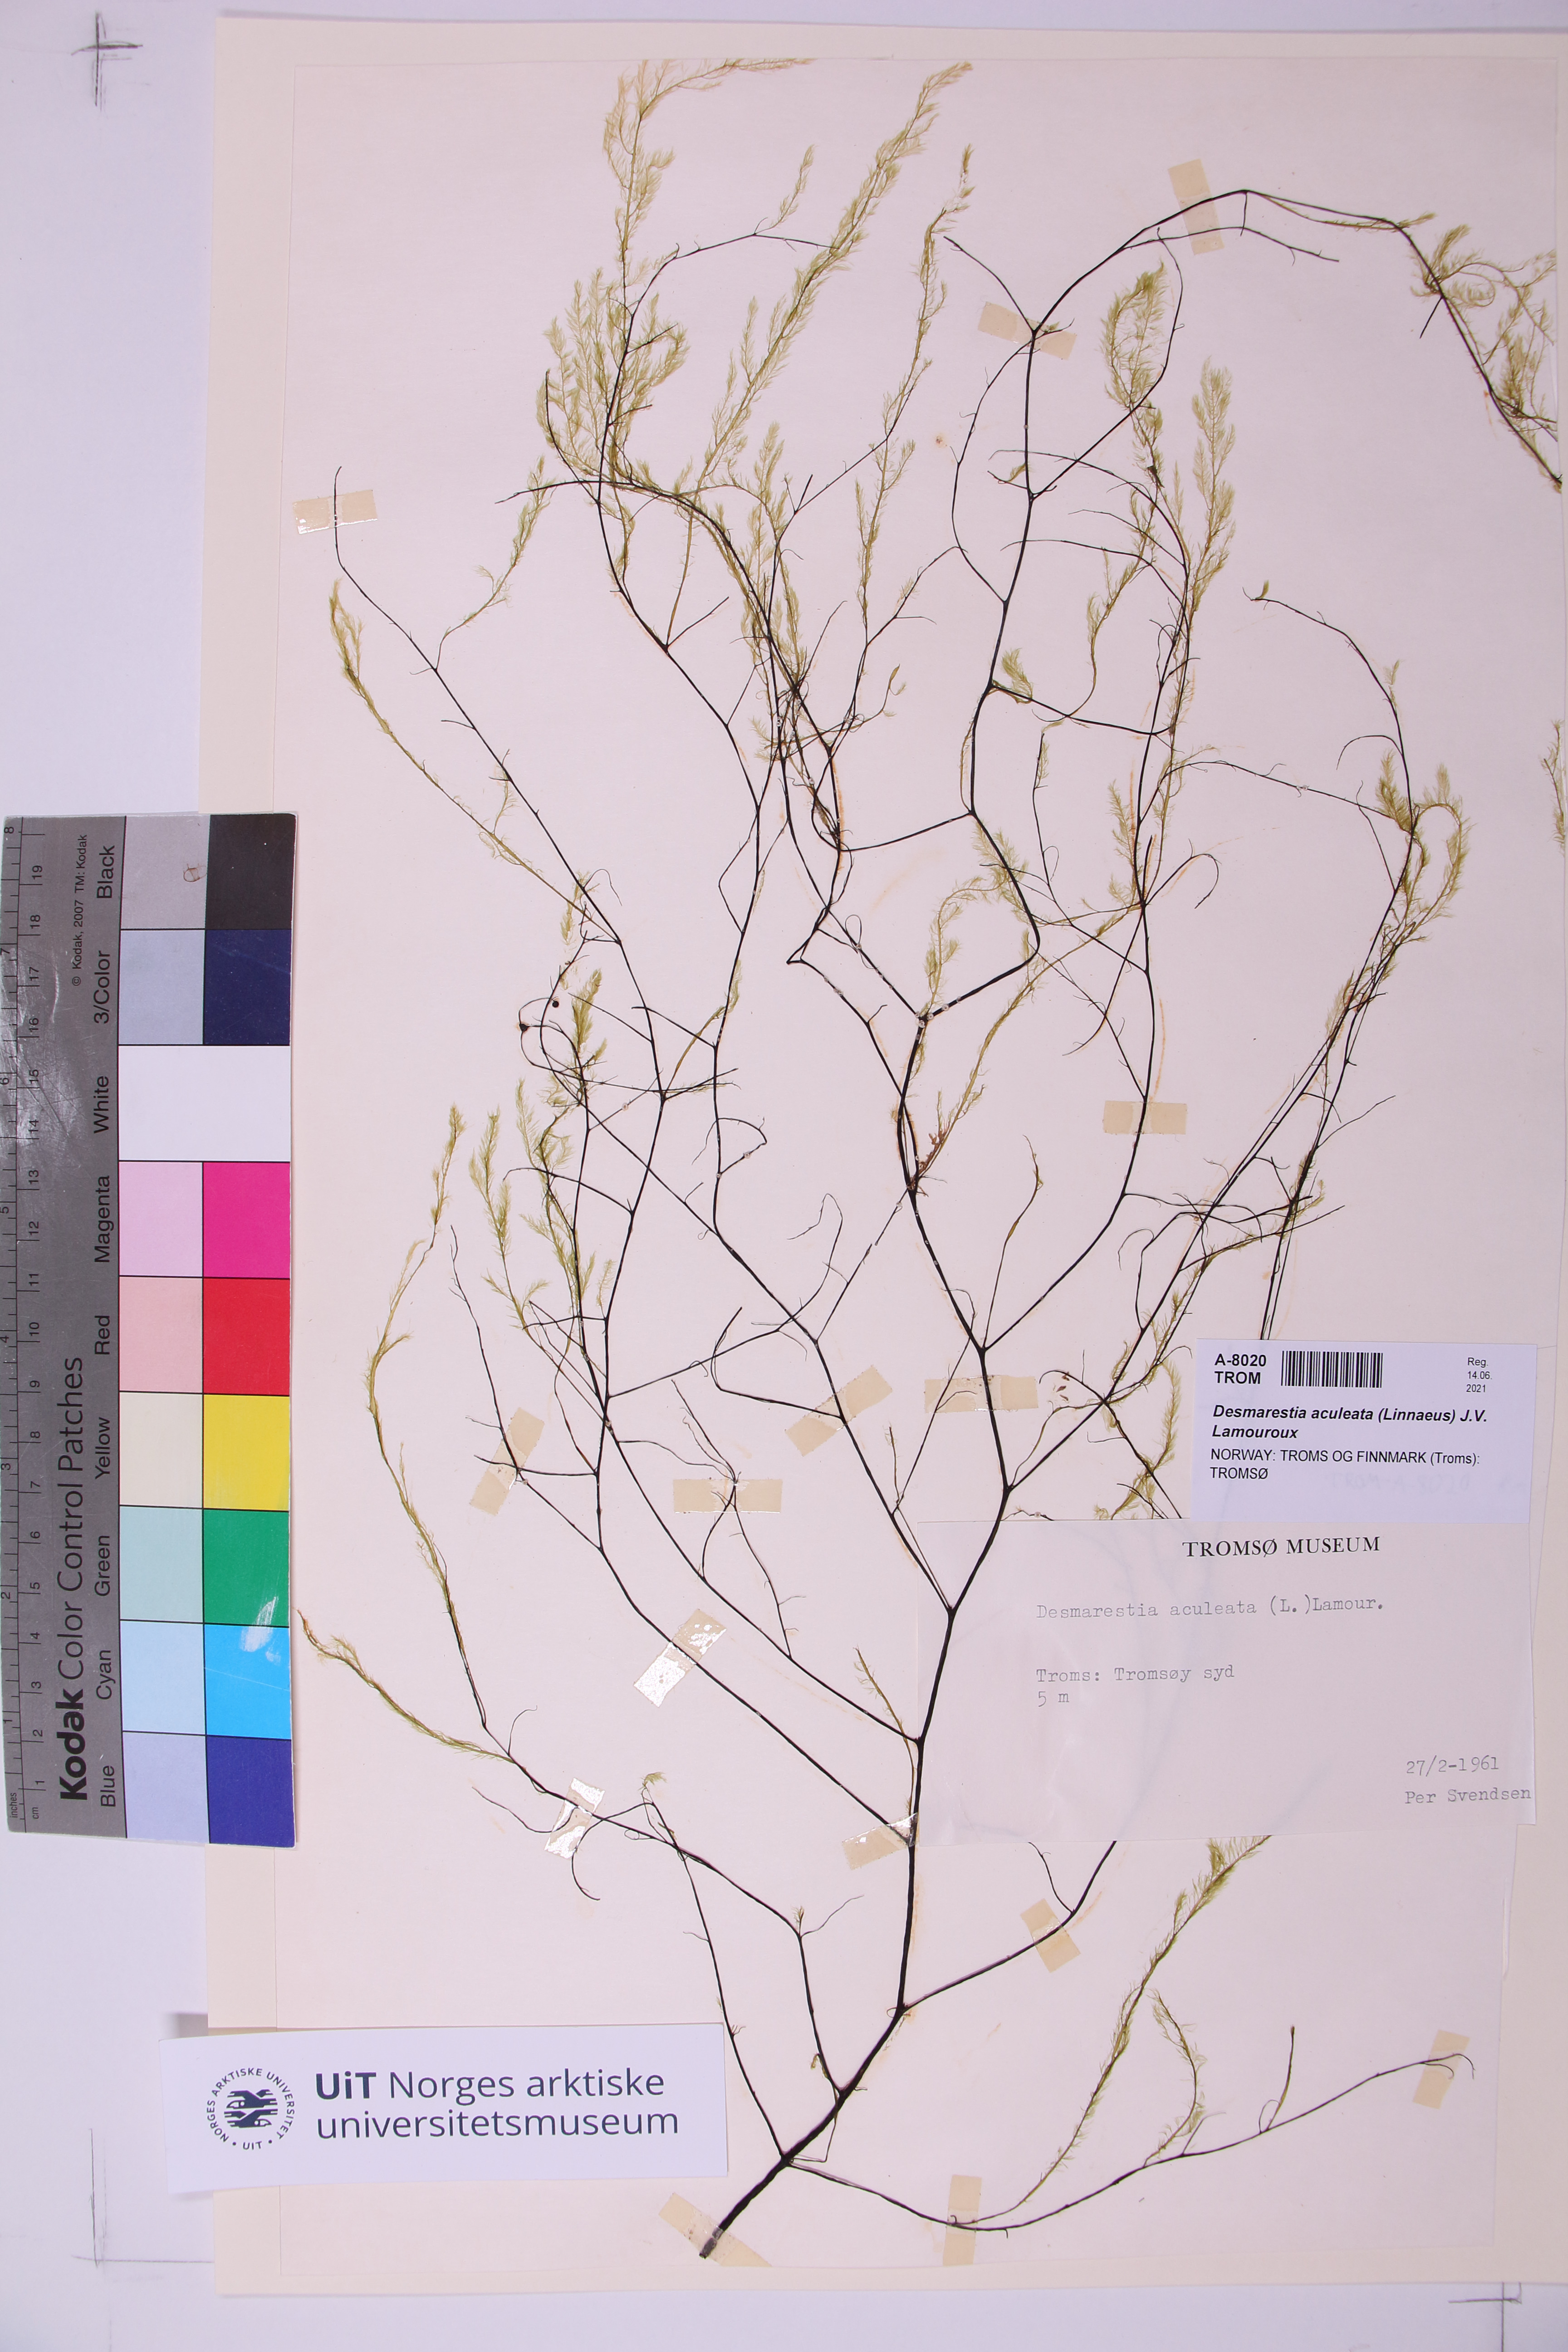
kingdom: Chromista
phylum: Ochrophyta
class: Phaeophyceae
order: Desmarestiales
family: Desmarestiaceae
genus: Desmarestia
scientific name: Desmarestia aculeata
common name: Witch's hair
